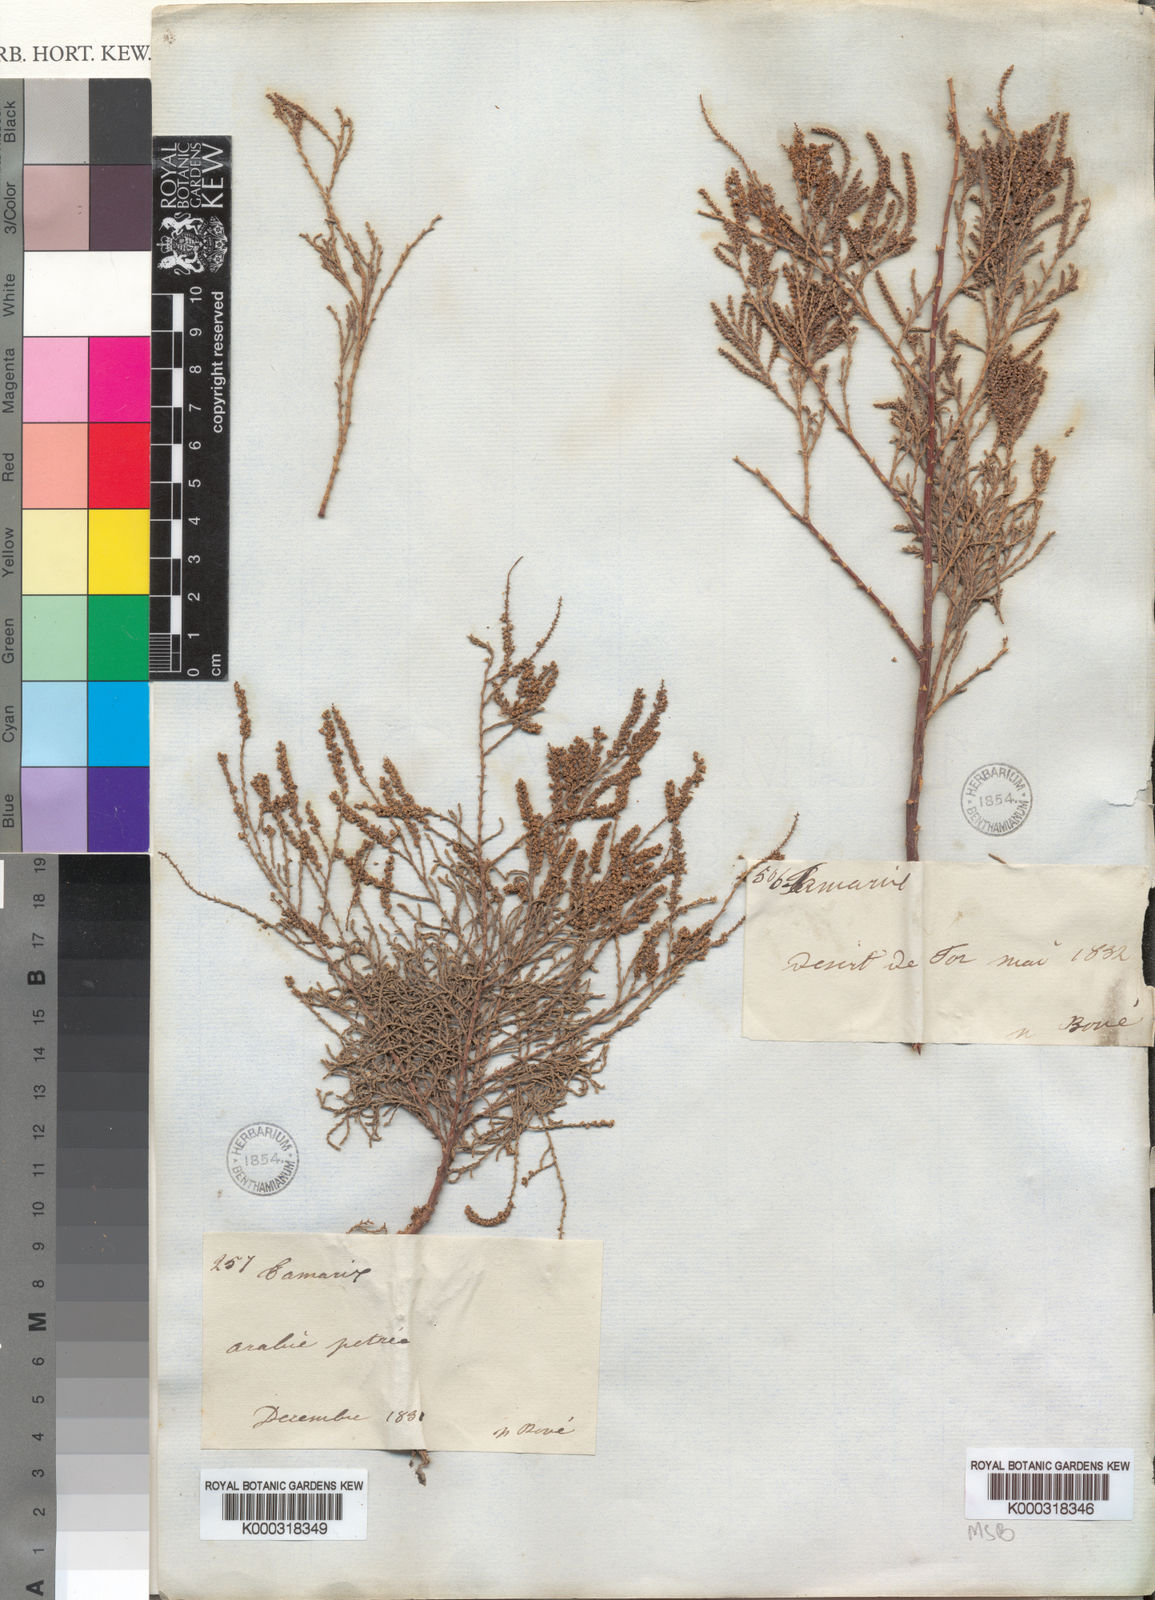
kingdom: Plantae
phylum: Tracheophyta
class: Magnoliopsida
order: Caryophyllales
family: Tamaricaceae
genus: Tamarix
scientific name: Tamarix senegalensis
